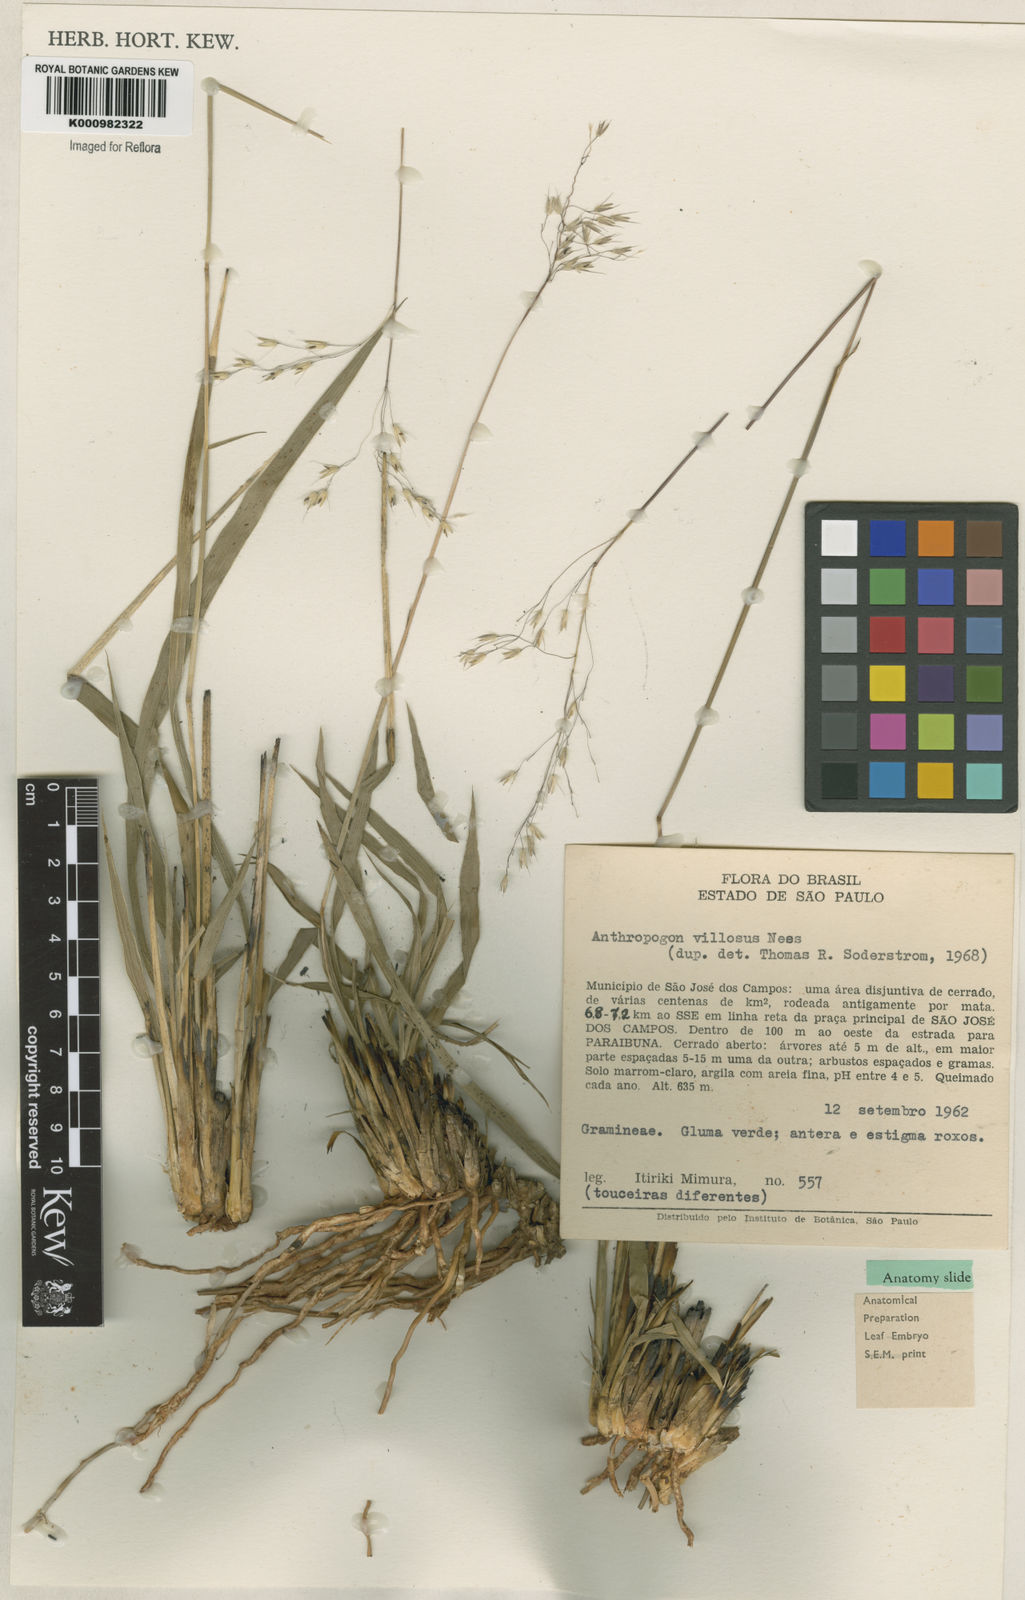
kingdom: Plantae
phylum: Tracheophyta
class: Liliopsida
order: Poales
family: Poaceae
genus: Arthropogon
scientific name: Arthropogon villosus
